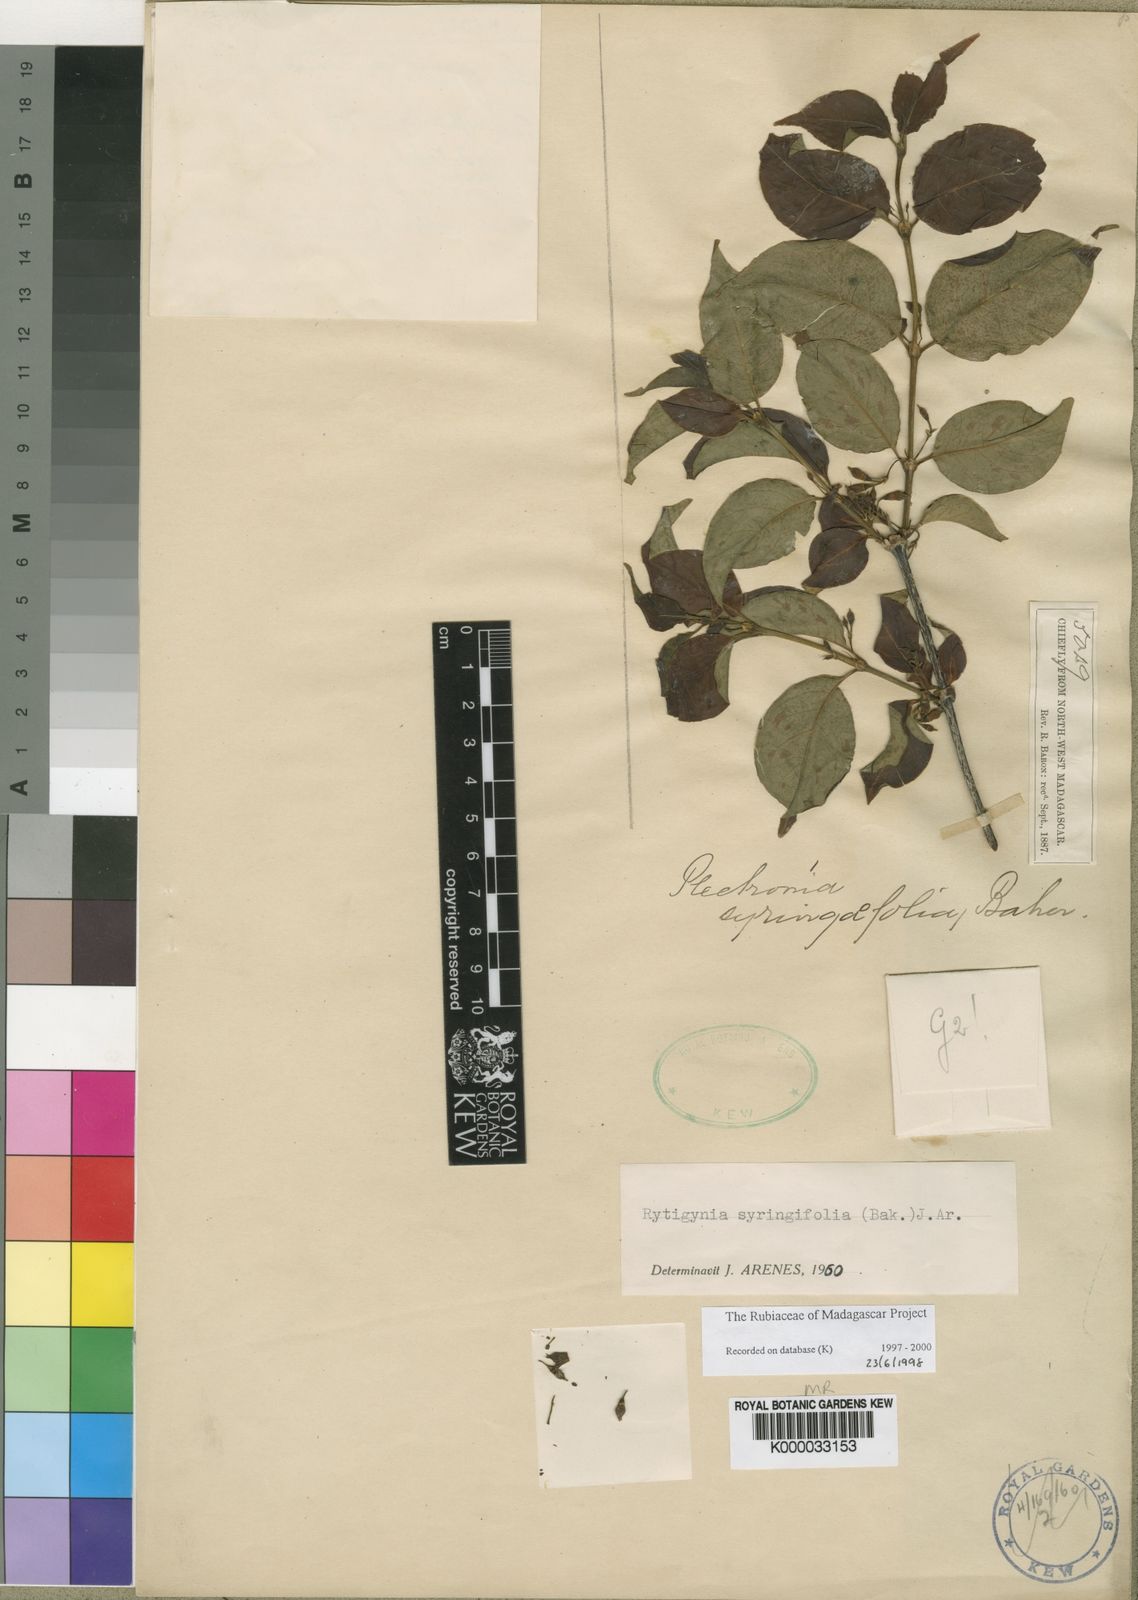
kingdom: Plantae
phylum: Tracheophyta
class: Magnoliopsida
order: Gentianales
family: Rubiaceae
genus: Rytigynia
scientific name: Rytigynia
